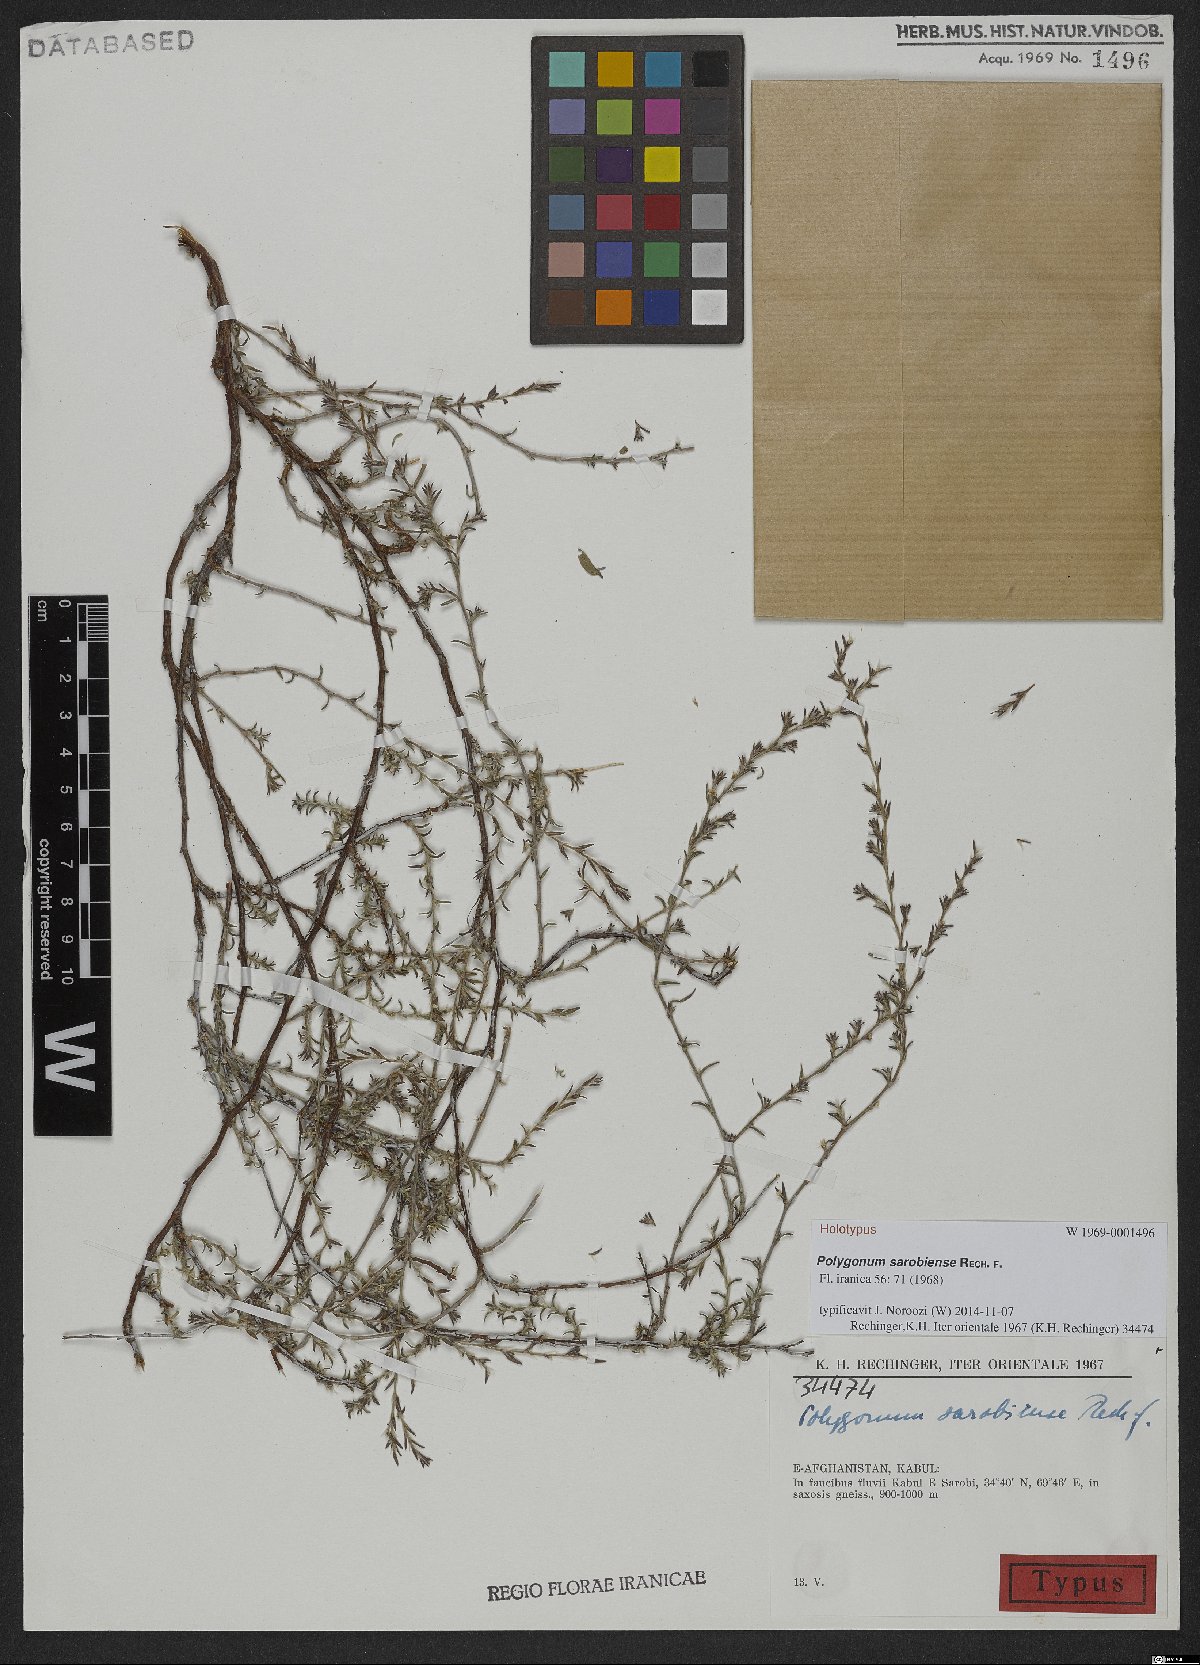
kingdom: Plantae
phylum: Tracheophyta
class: Magnoliopsida
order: Caryophyllales
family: Polygonaceae
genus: Polygonum
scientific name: Polygonum sarobiense
